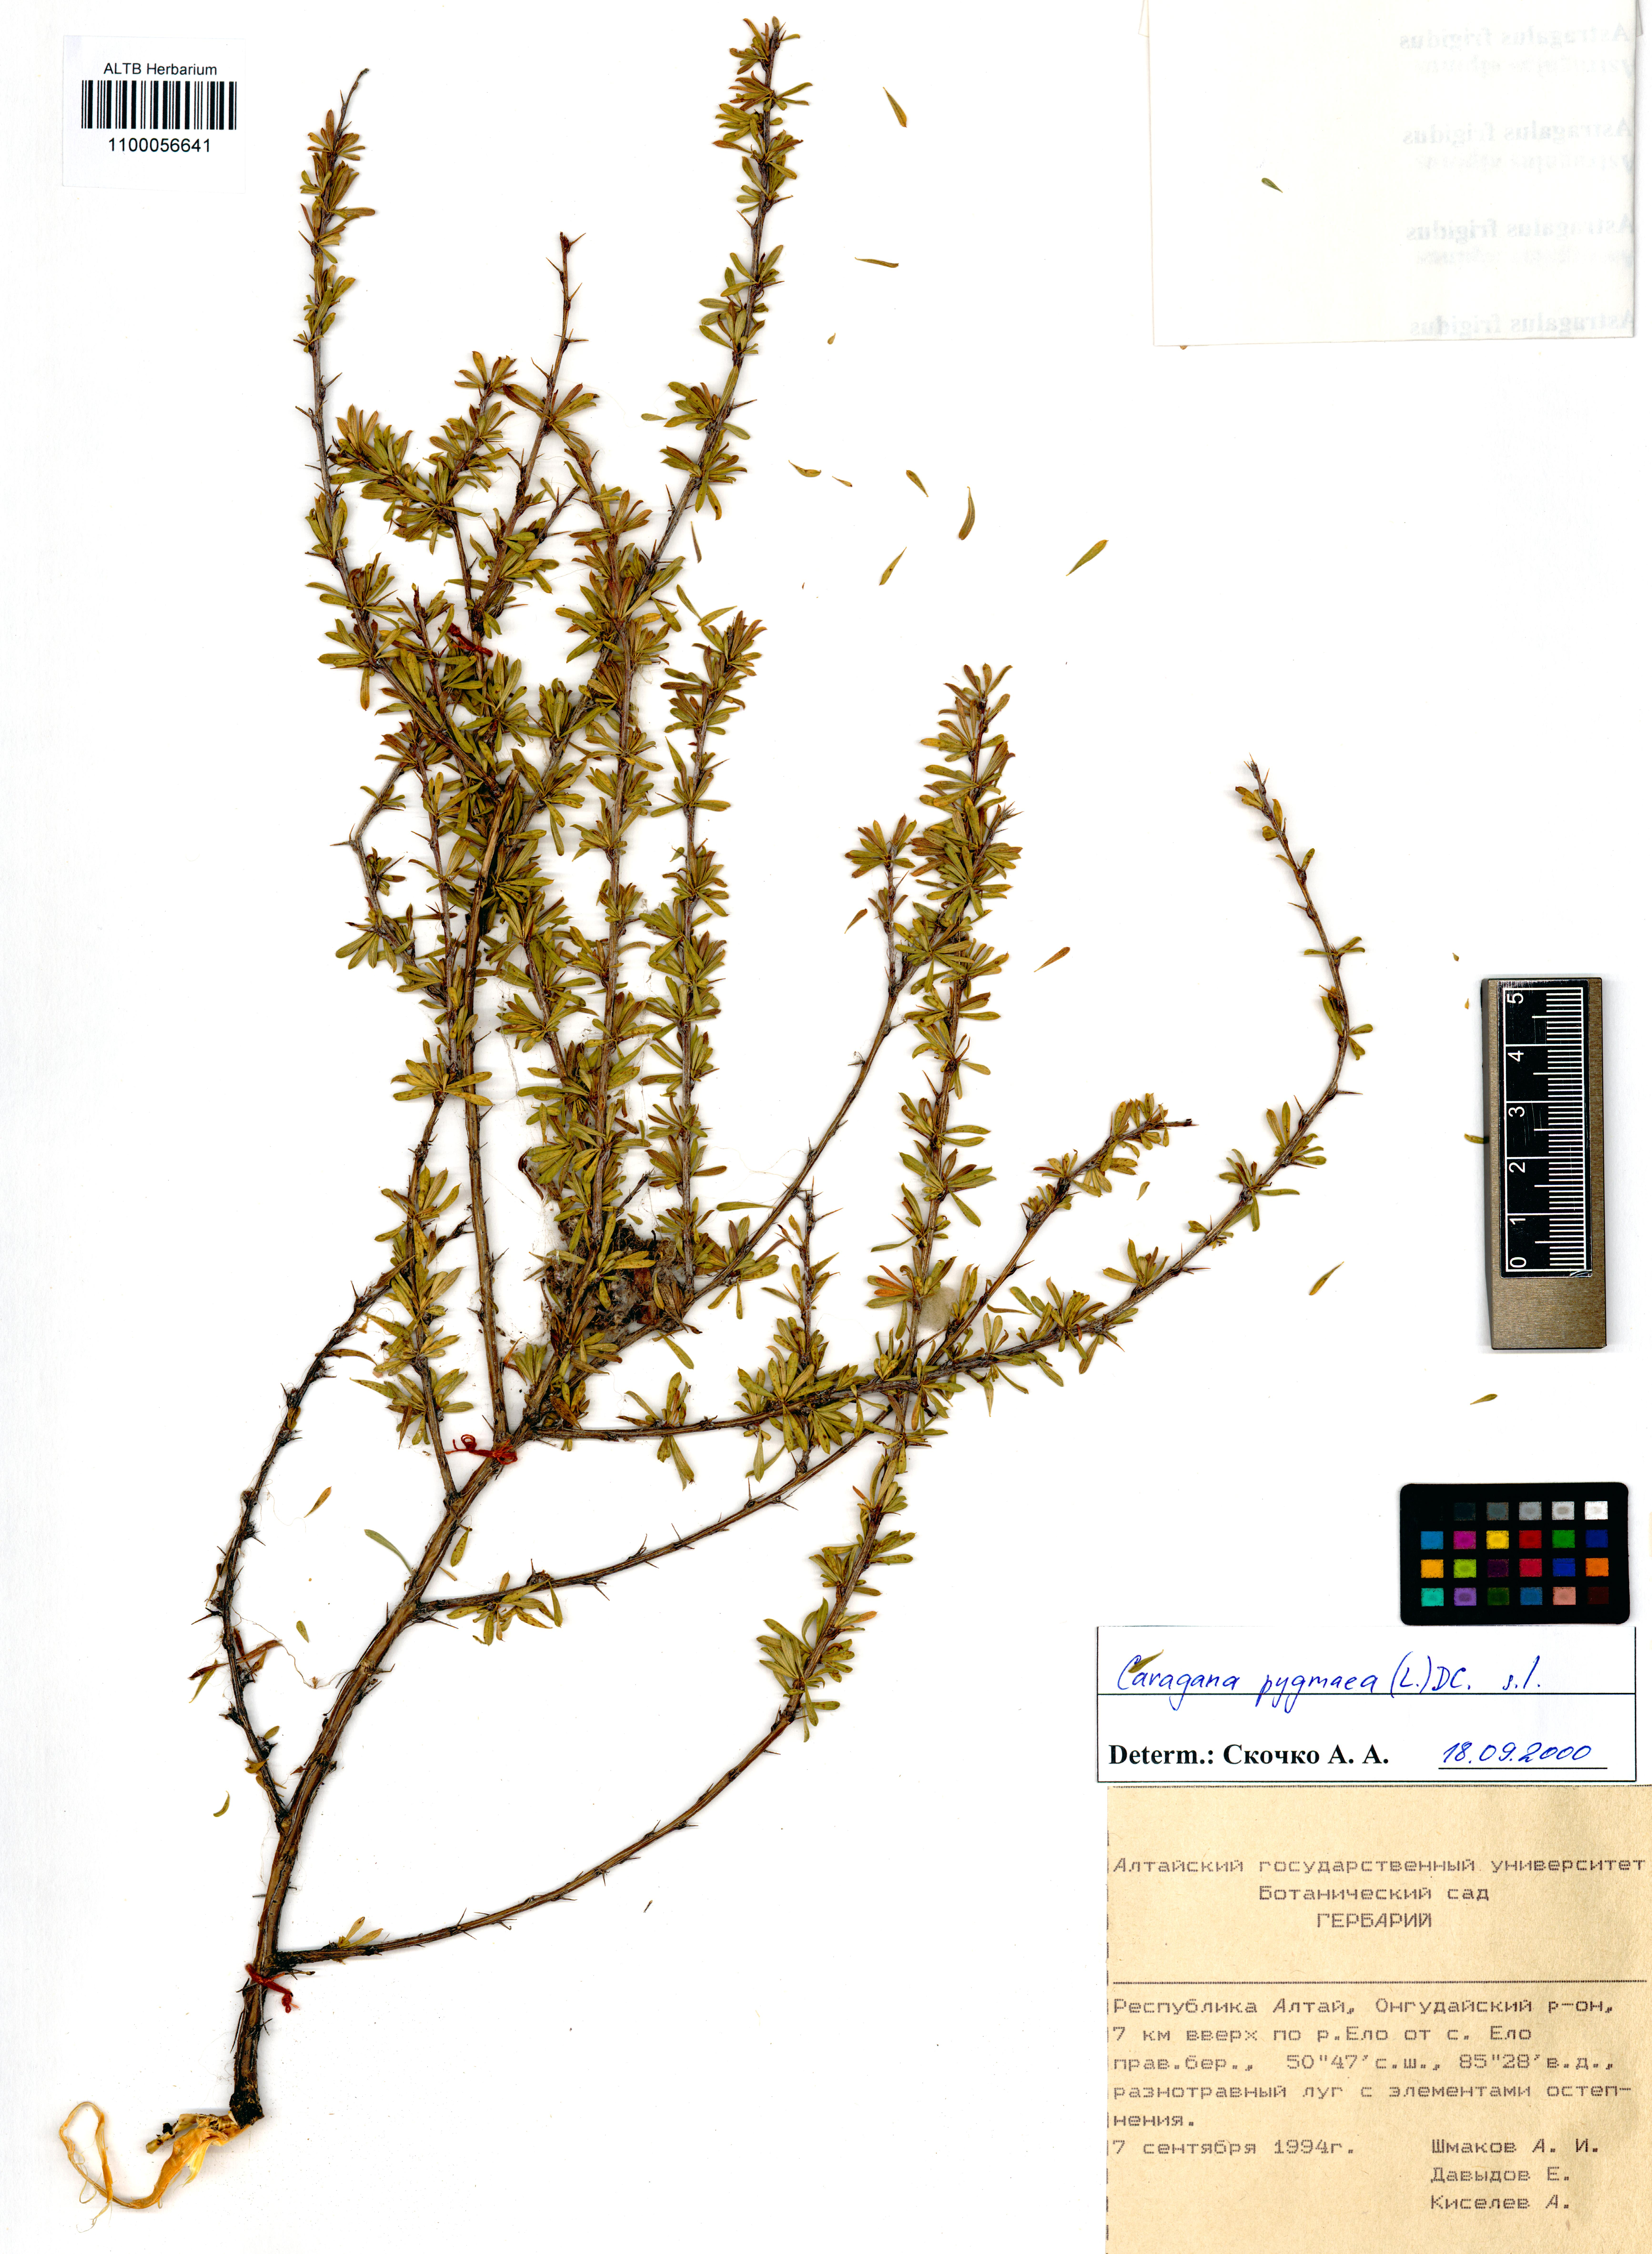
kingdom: Plantae
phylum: Tracheophyta
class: Magnoliopsida
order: Fabales
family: Fabaceae
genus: Caragana
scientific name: Caragana pygmaea
